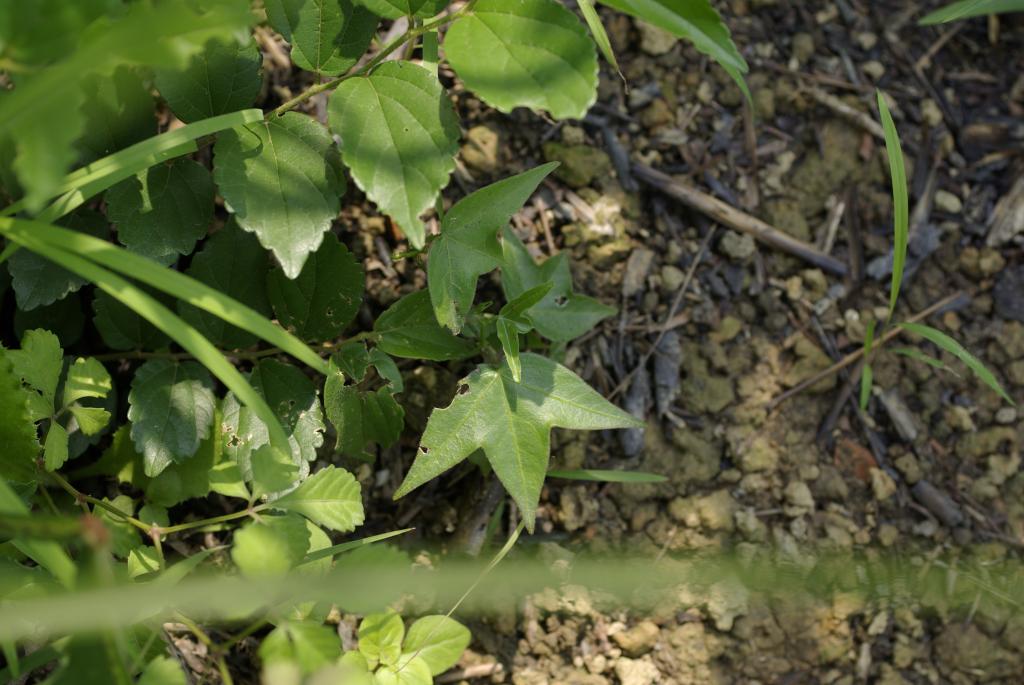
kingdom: Plantae
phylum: Tracheophyta
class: Magnoliopsida
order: Malpighiales
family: Passifloraceae
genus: Passiflora
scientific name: Passiflora suberosa
